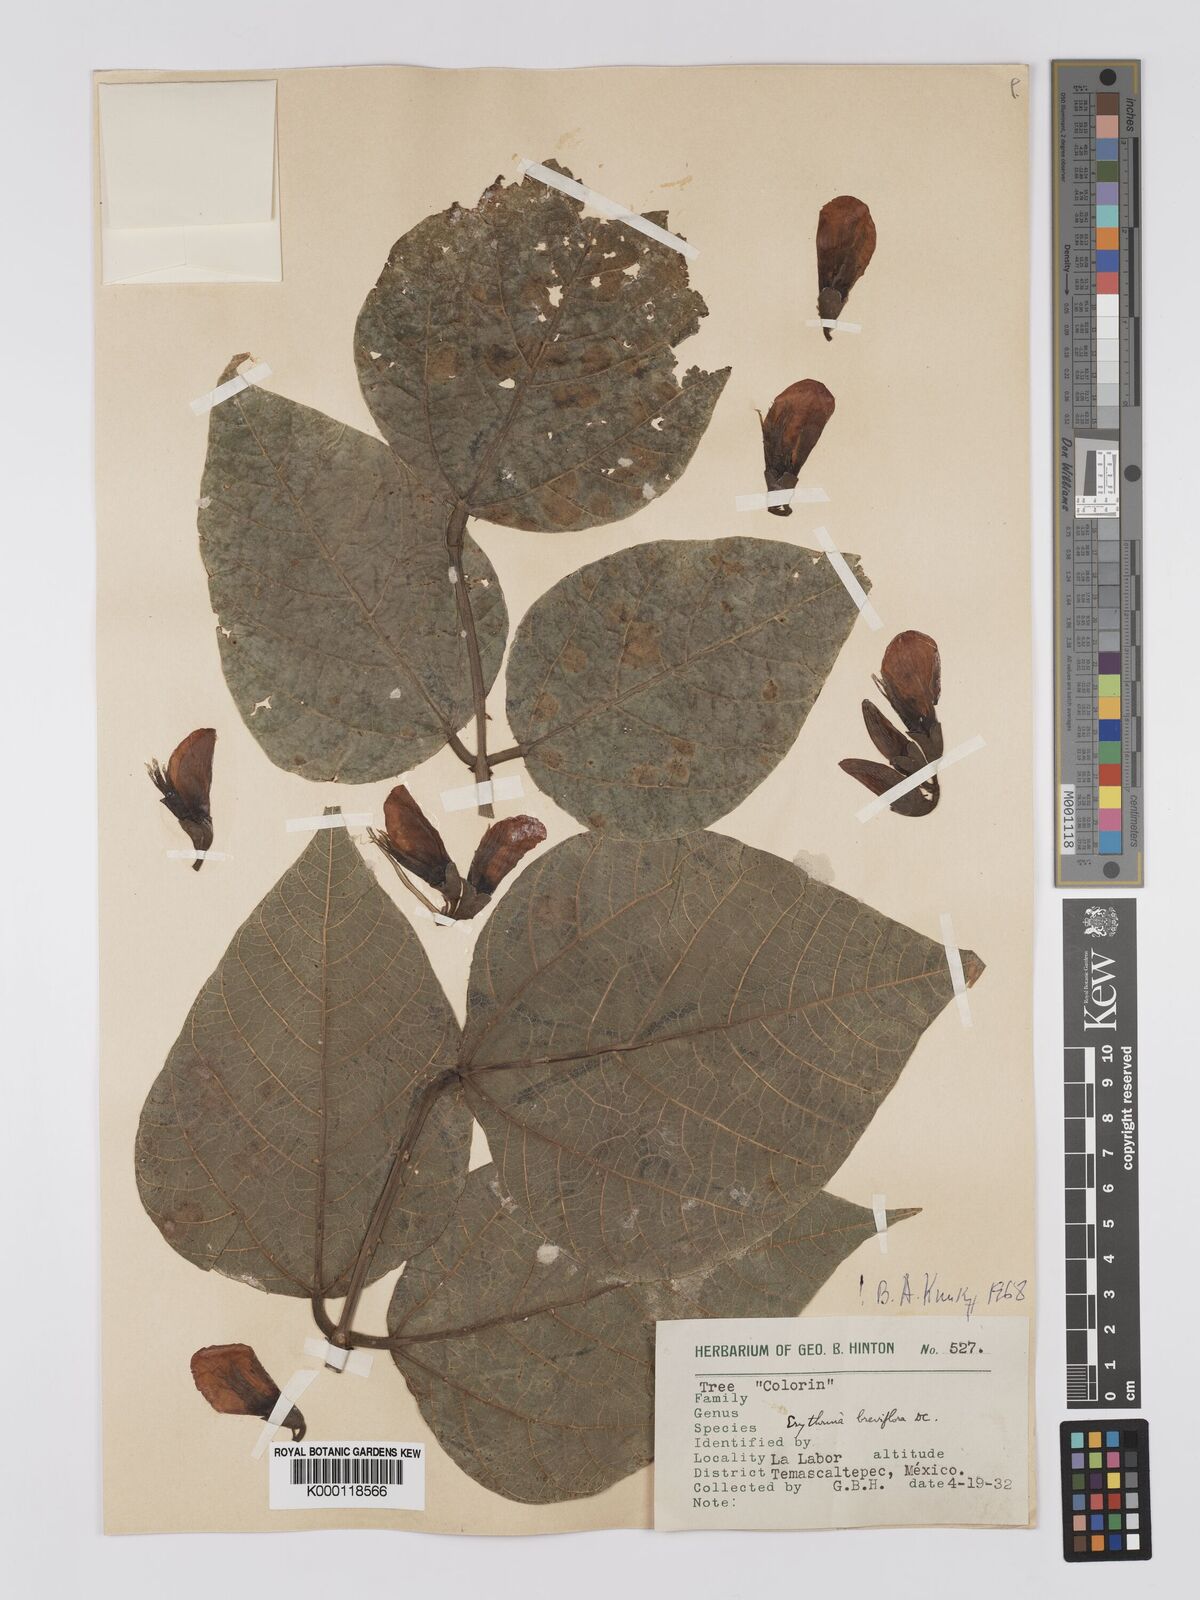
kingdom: Plantae
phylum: Tracheophyta
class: Magnoliopsida
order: Fabales
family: Fabaceae
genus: Erythrina
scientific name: Erythrina breviflora
